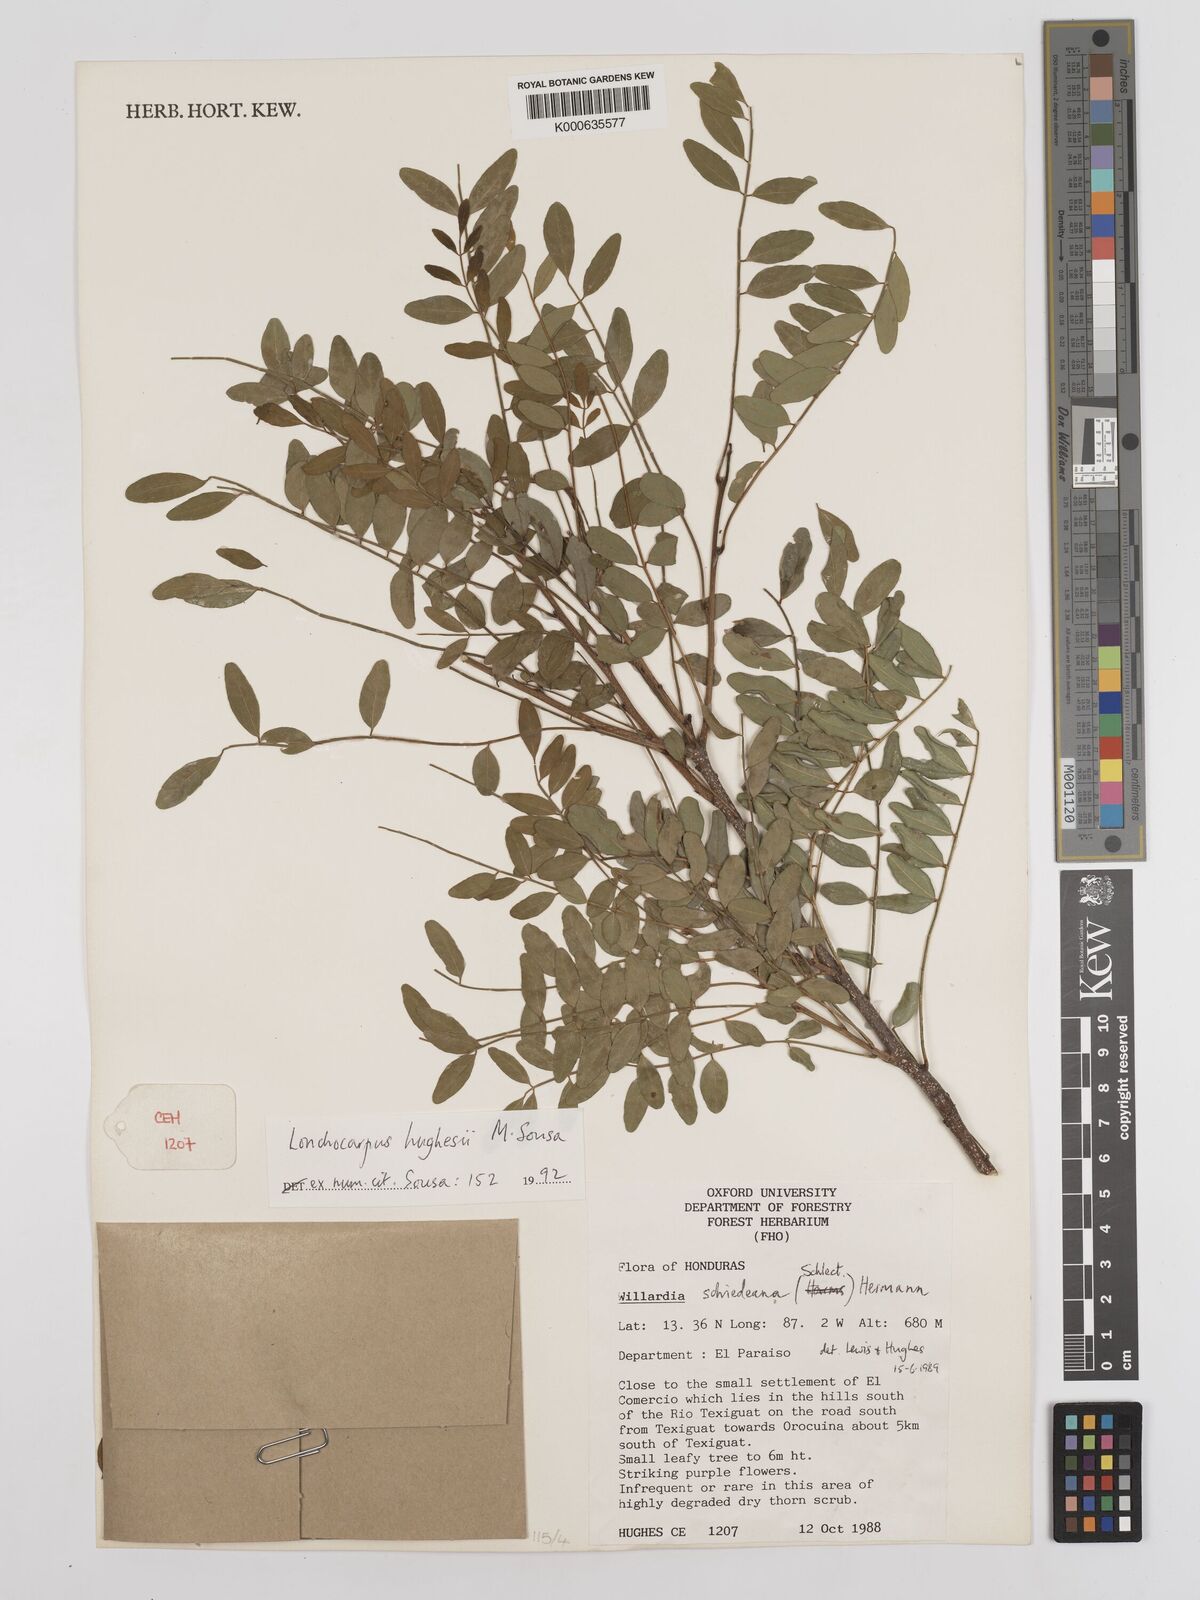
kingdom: Plantae
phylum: Tracheophyta
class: Magnoliopsida
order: Fabales
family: Fabaceae
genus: Lonchocarpus
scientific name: Lonchocarpus hughesii
